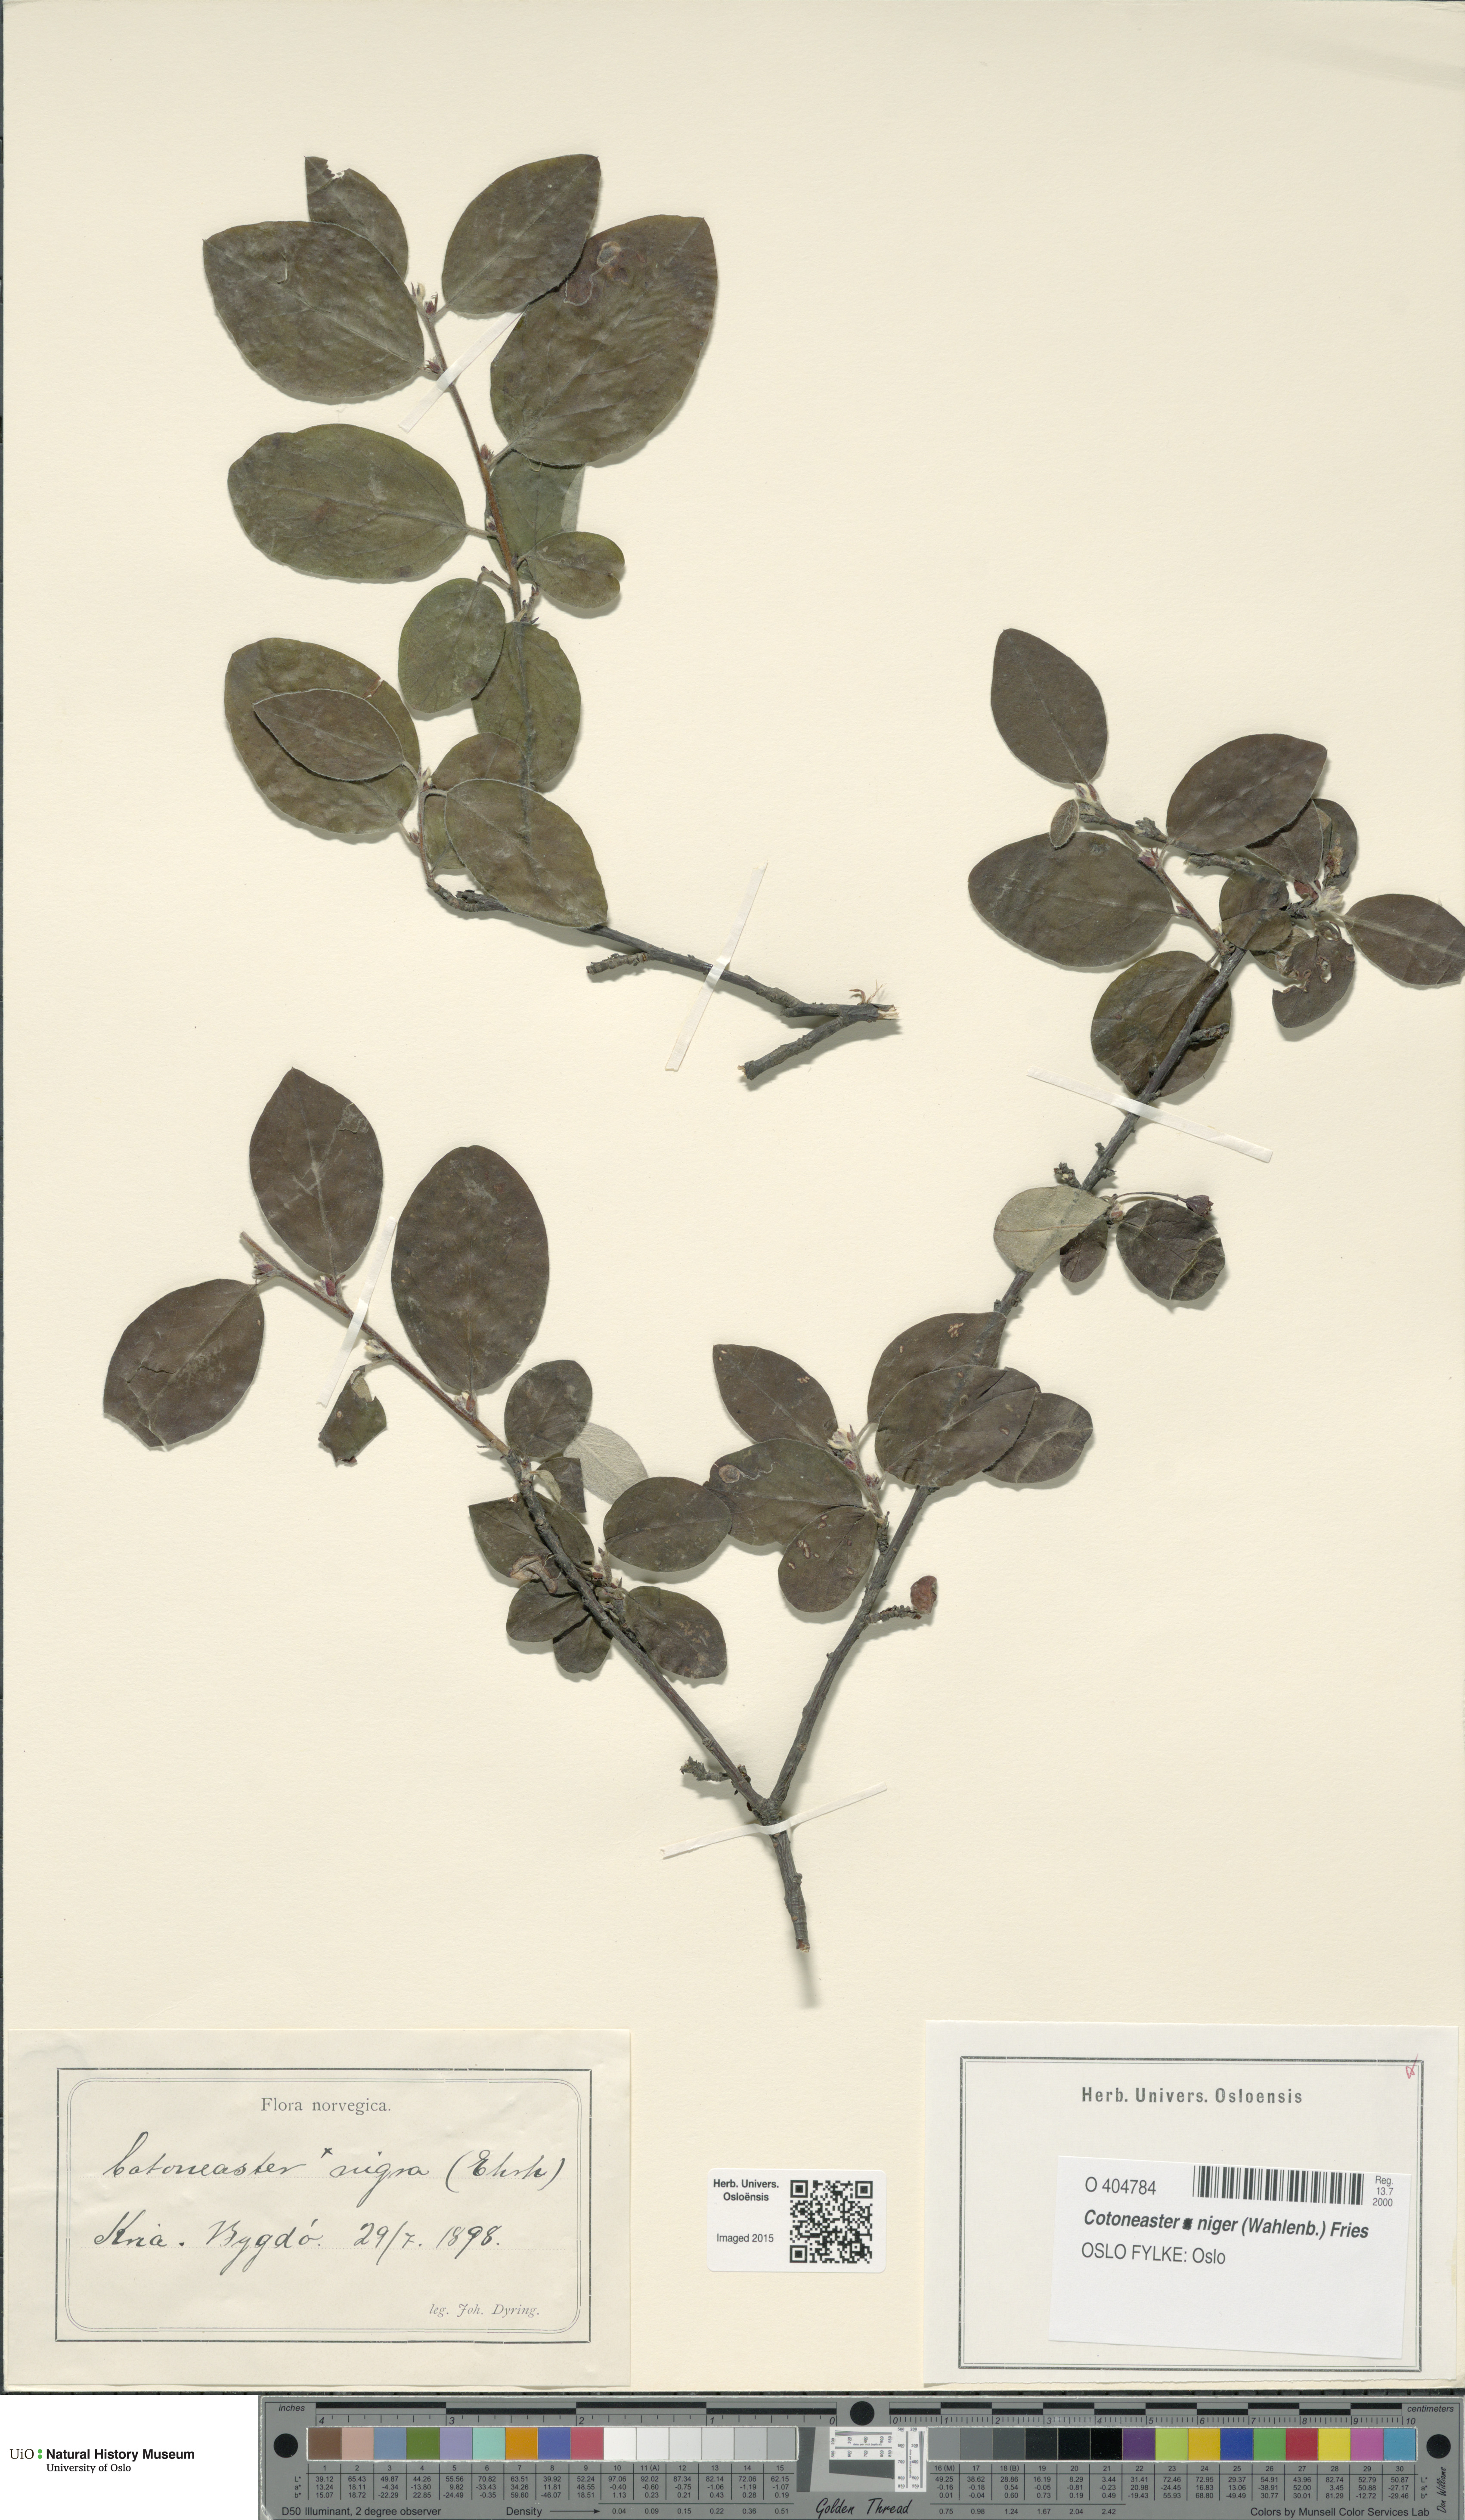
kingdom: Plantae
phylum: Tracheophyta
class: Magnoliopsida
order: Rosales
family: Rosaceae
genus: Cotoneaster
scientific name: Cotoneaster niger
